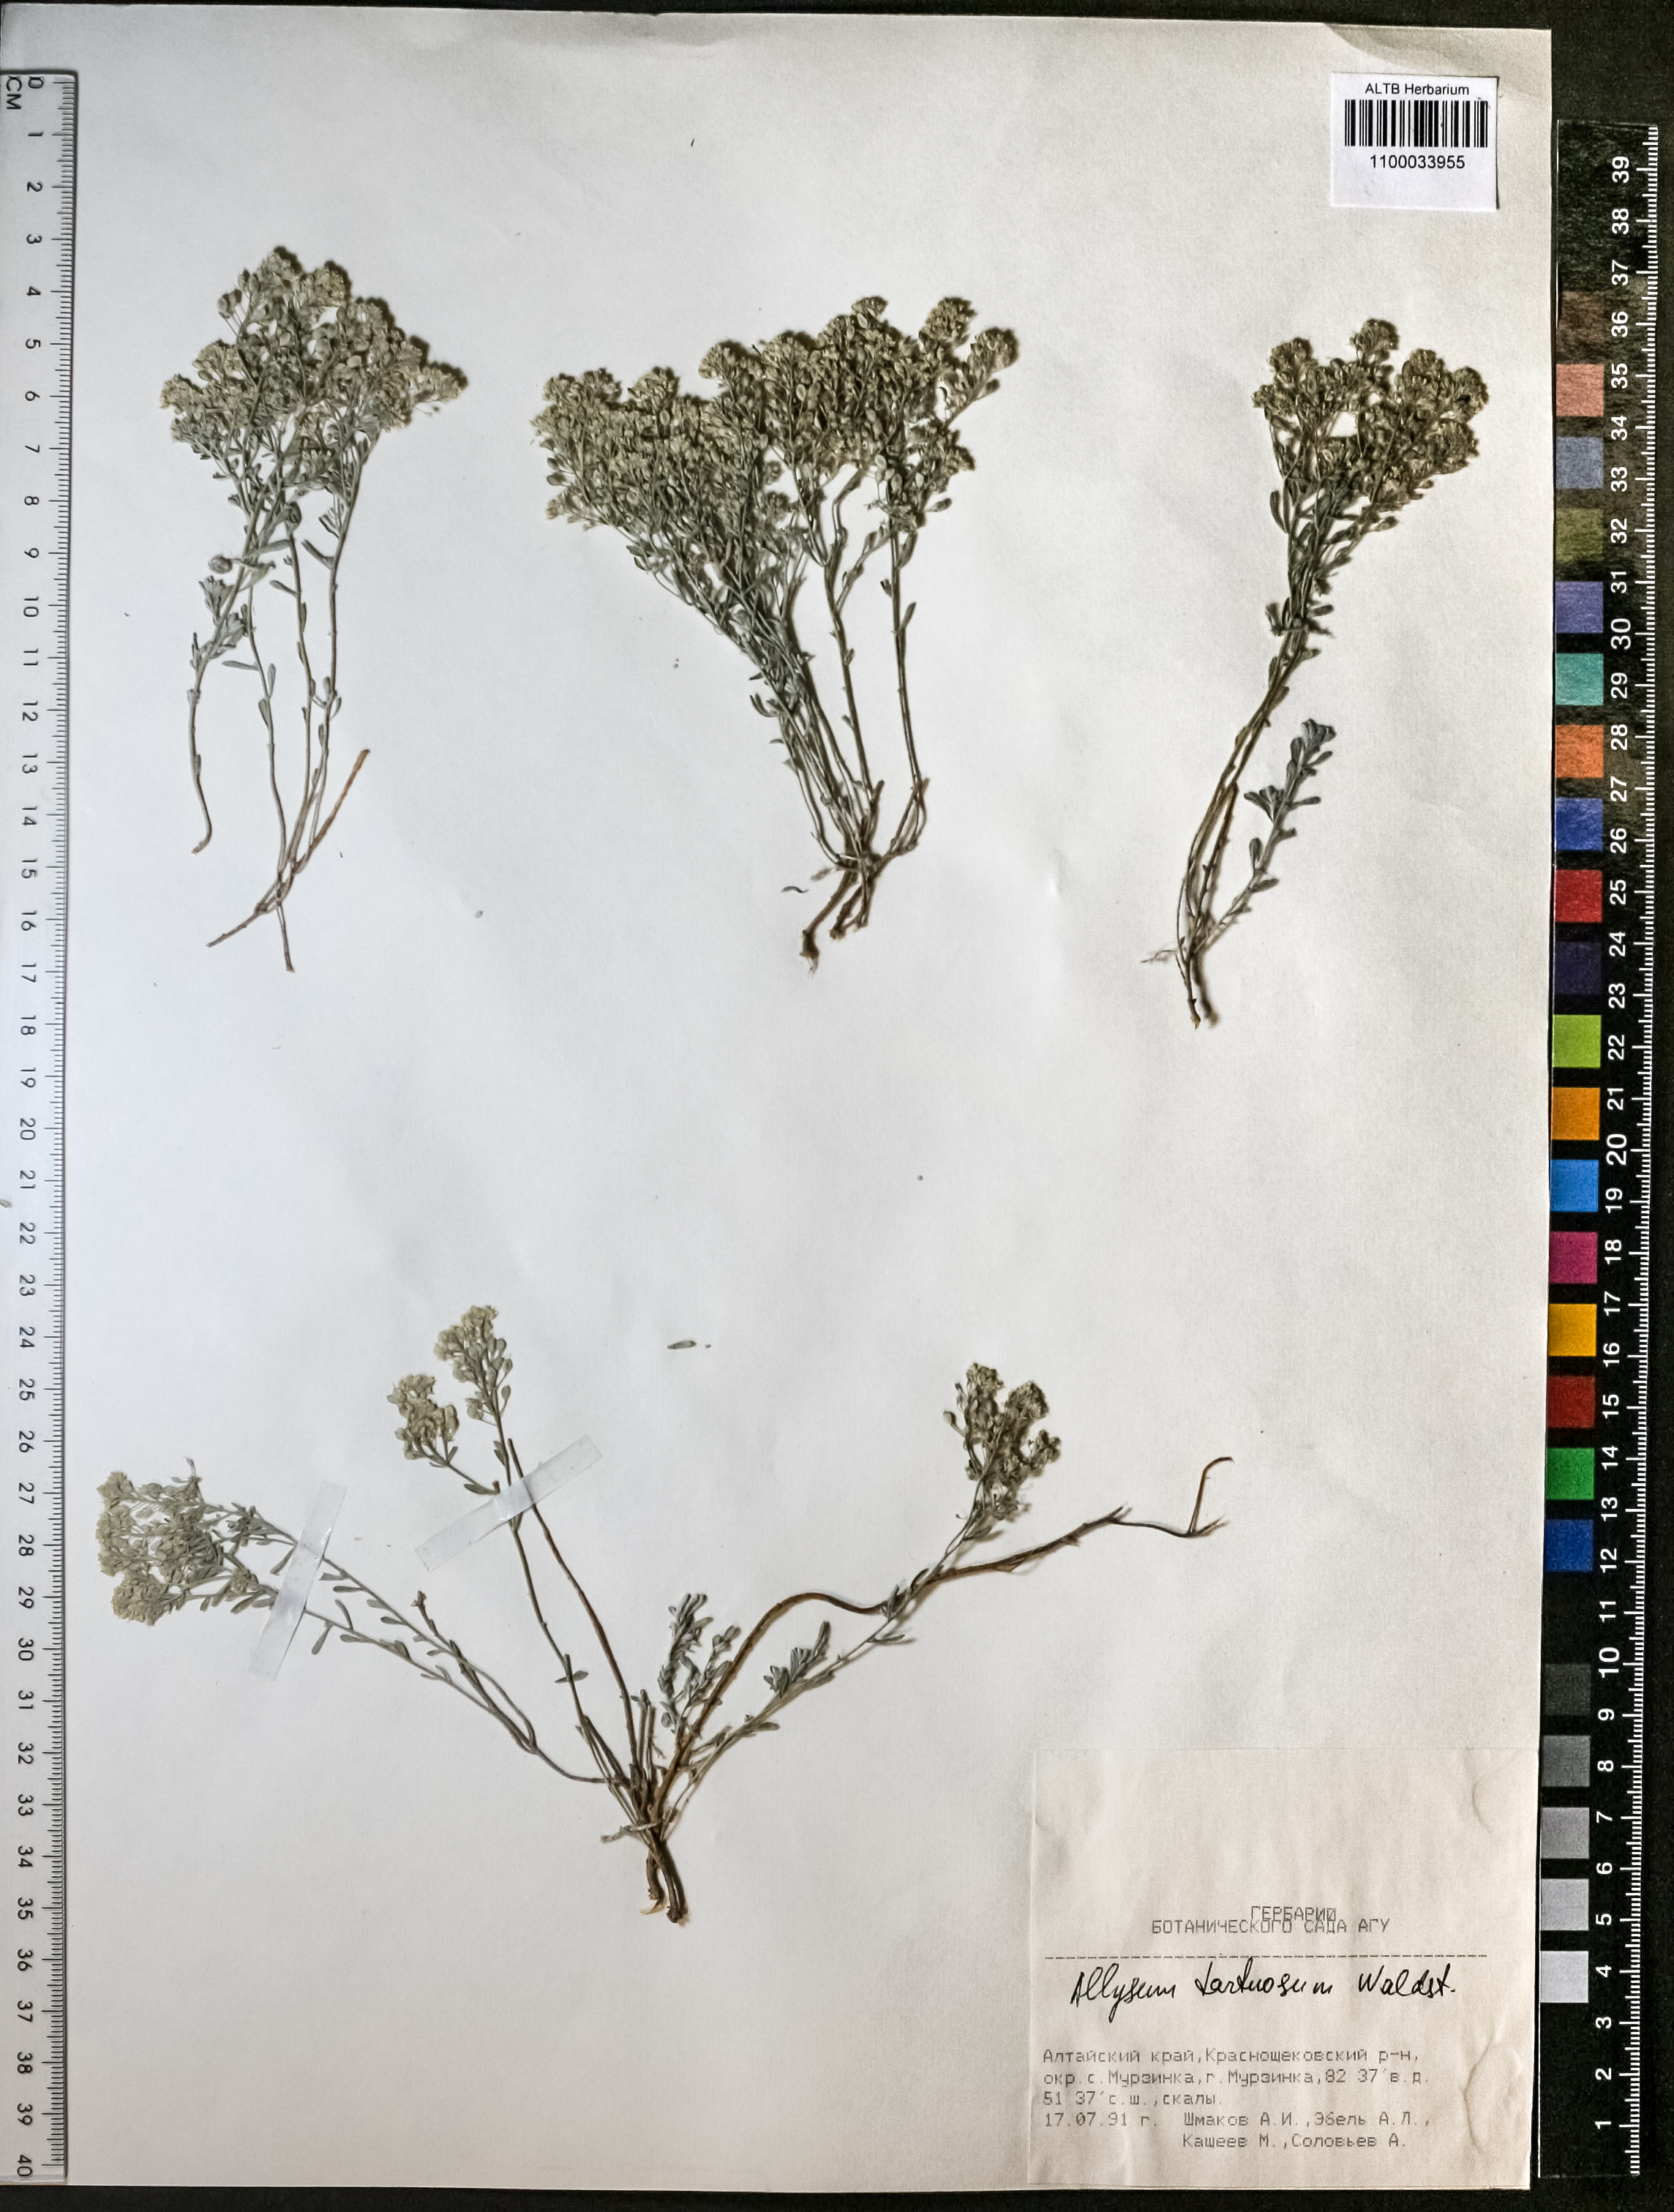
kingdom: Plantae
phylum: Tracheophyta
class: Magnoliopsida
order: Brassicales
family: Brassicaceae
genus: Odontarrhena
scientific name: Odontarrhena alpestris
